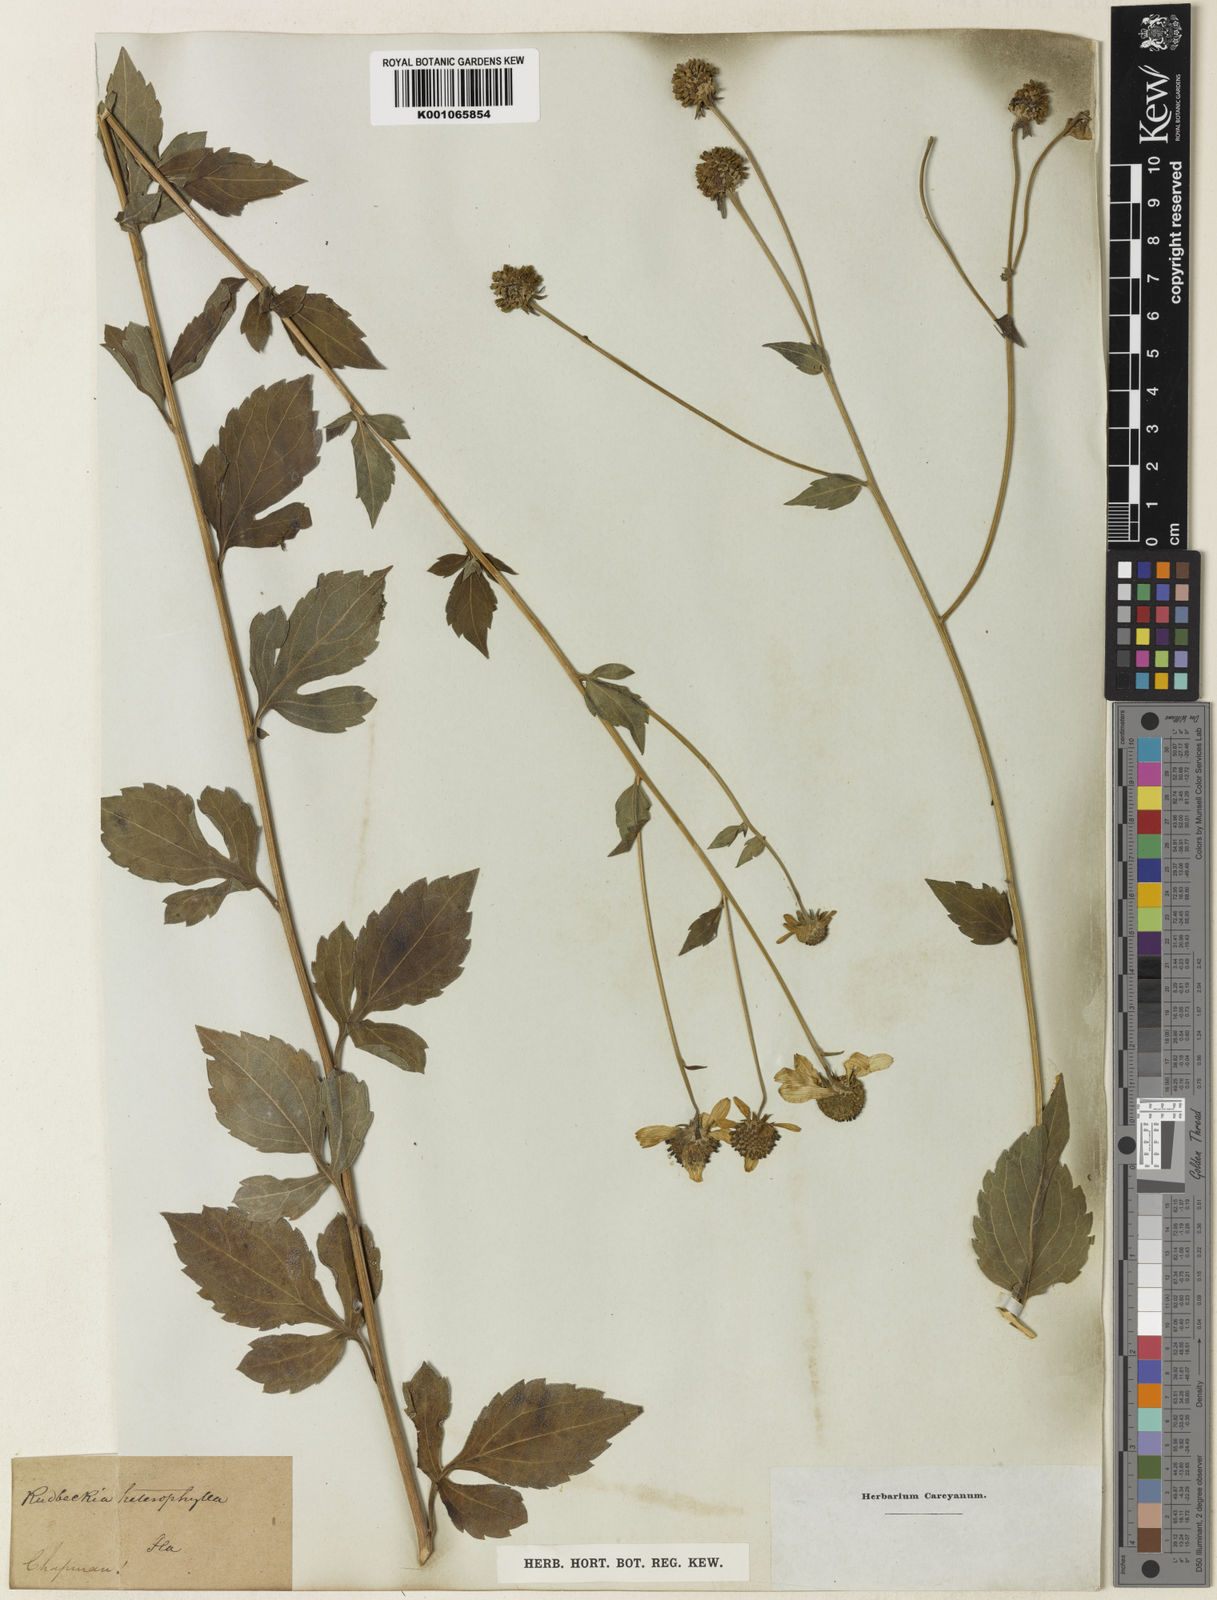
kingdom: Plantae
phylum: Tracheophyta
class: Magnoliopsida
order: Asterales
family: Asteraceae
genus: Rudbeckia
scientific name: Rudbeckia laciniata
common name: Coneflower
